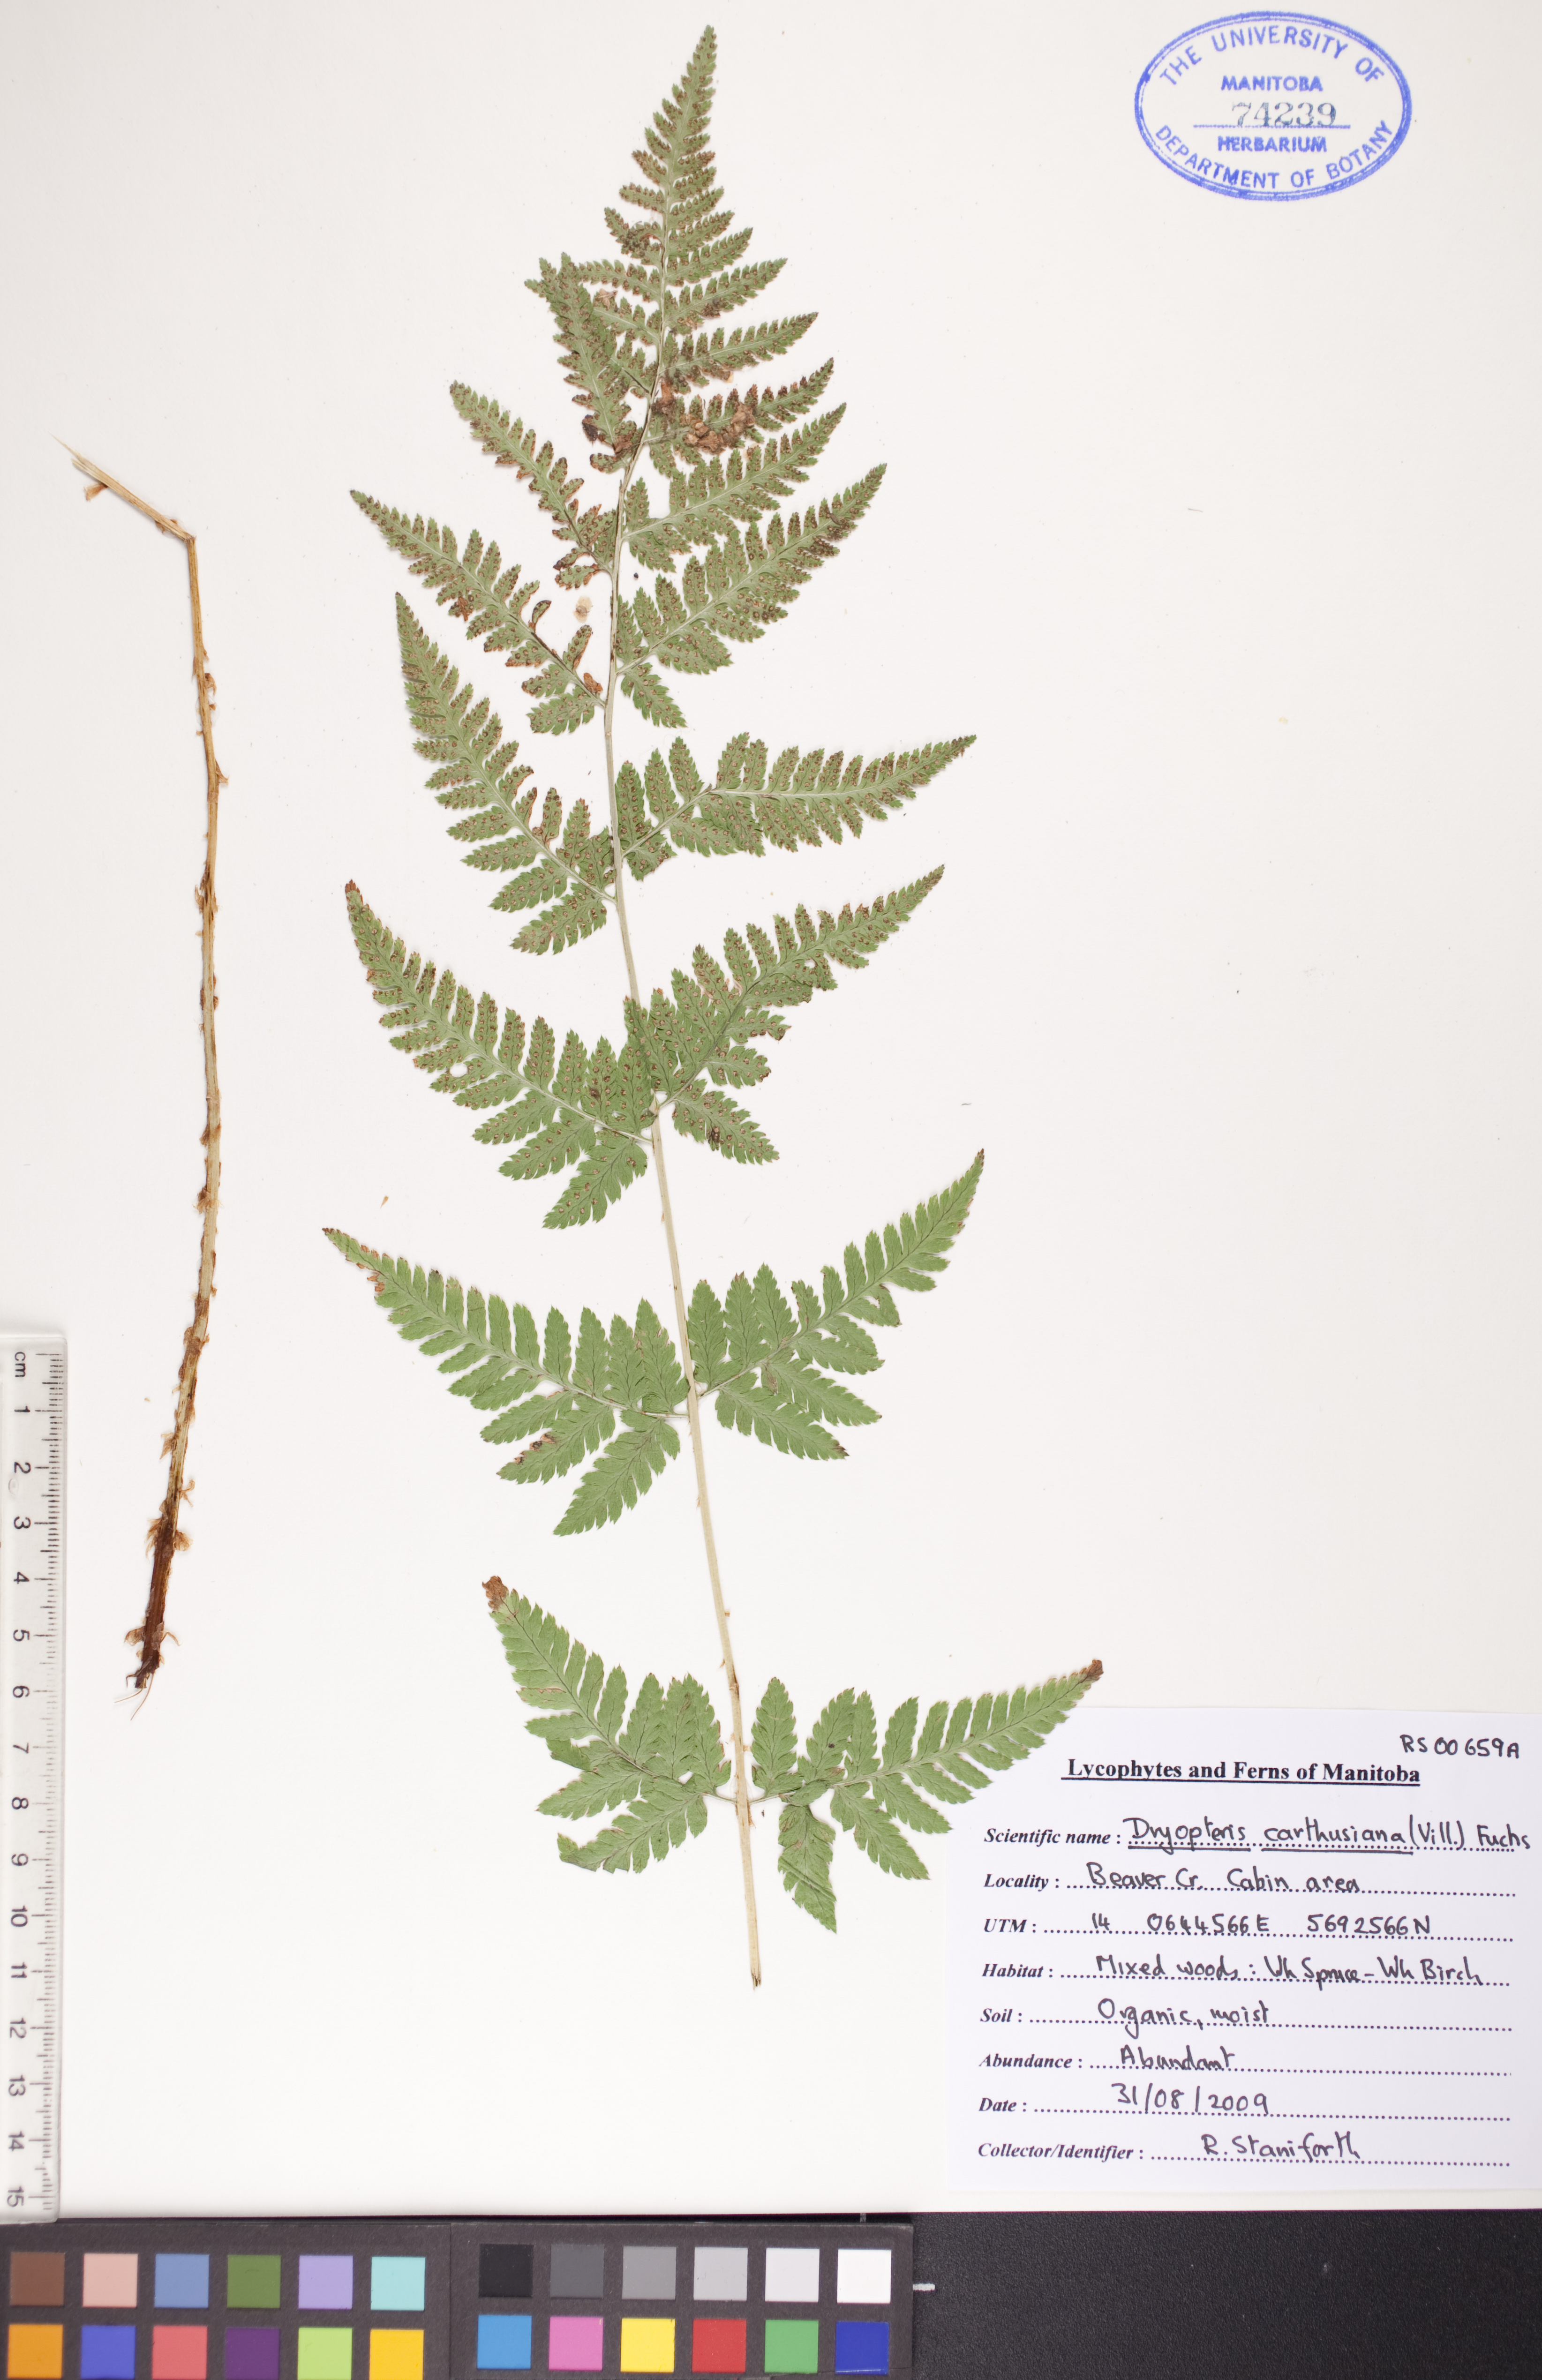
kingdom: Plantae
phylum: Tracheophyta
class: Polypodiopsida
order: Polypodiales
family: Dryopteridaceae
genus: Dryopteris
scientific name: Dryopteris carthusiana
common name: Narrow buckler-fern
